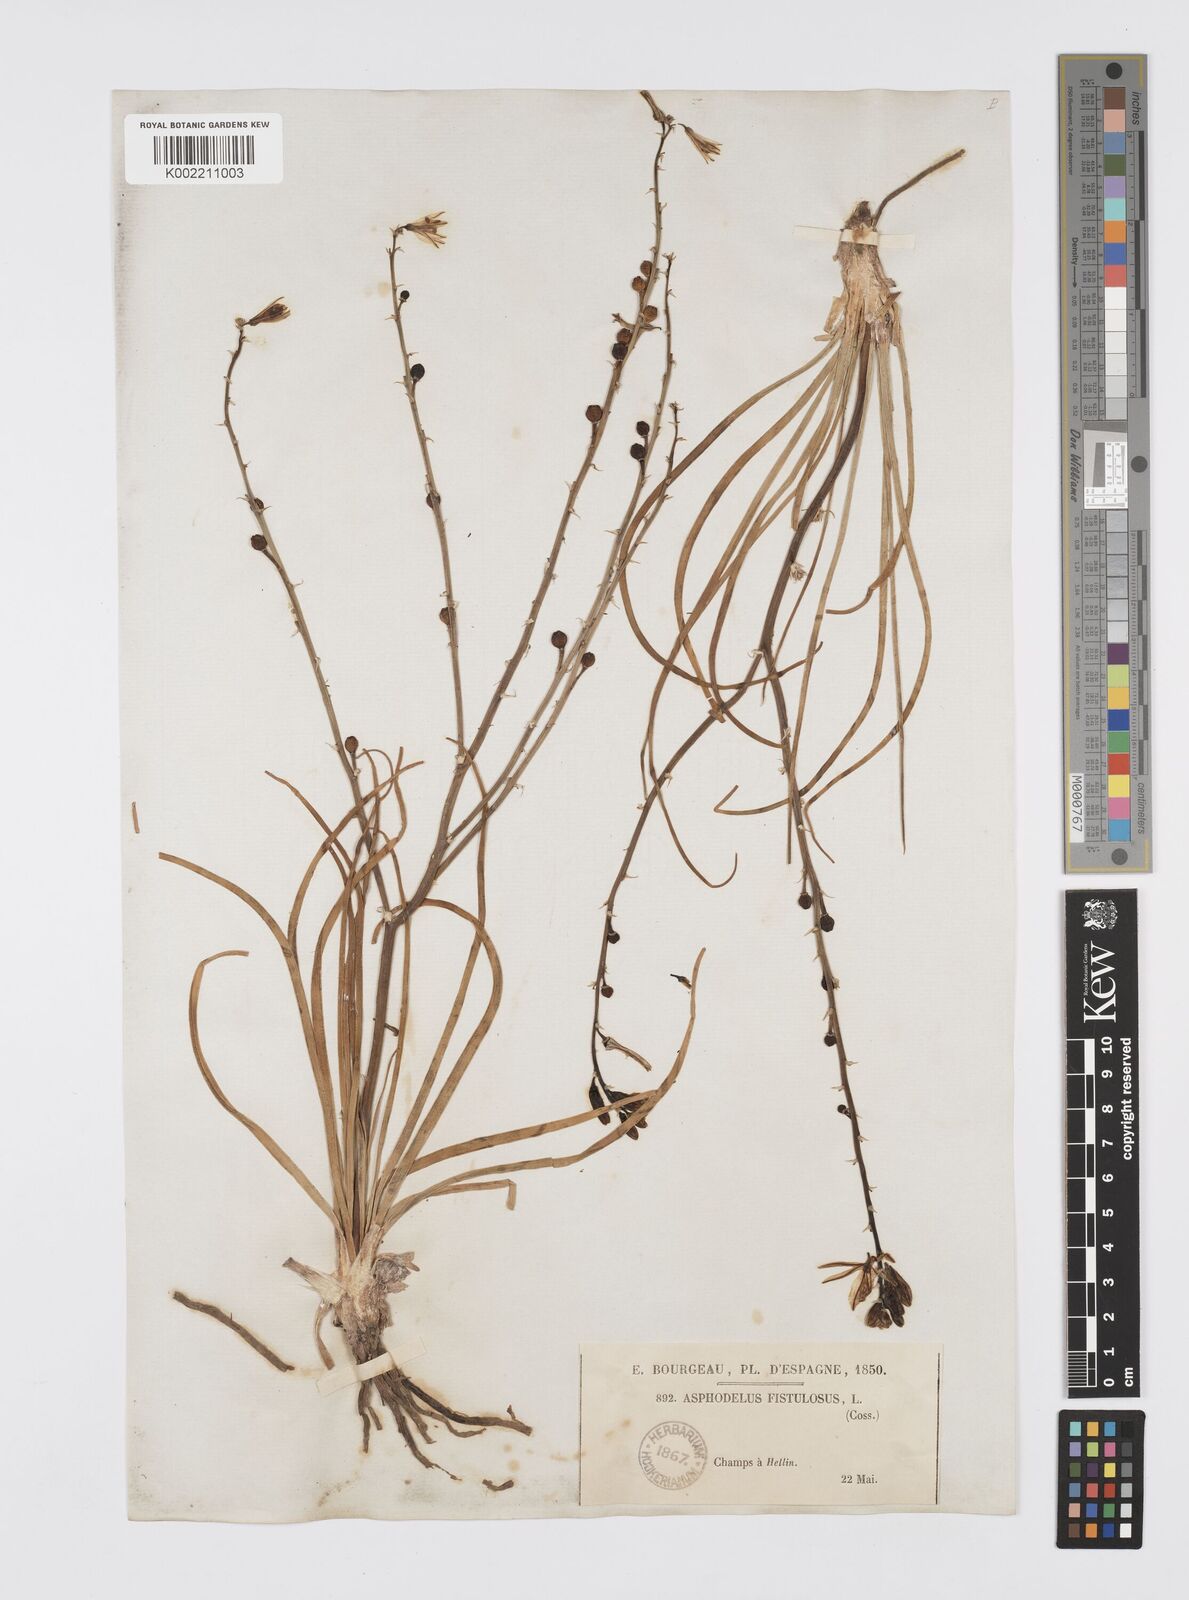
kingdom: Plantae
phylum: Tracheophyta
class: Liliopsida
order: Asparagales
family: Asphodelaceae
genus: Asphodelus
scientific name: Asphodelus fistulosus
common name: Onionweed
